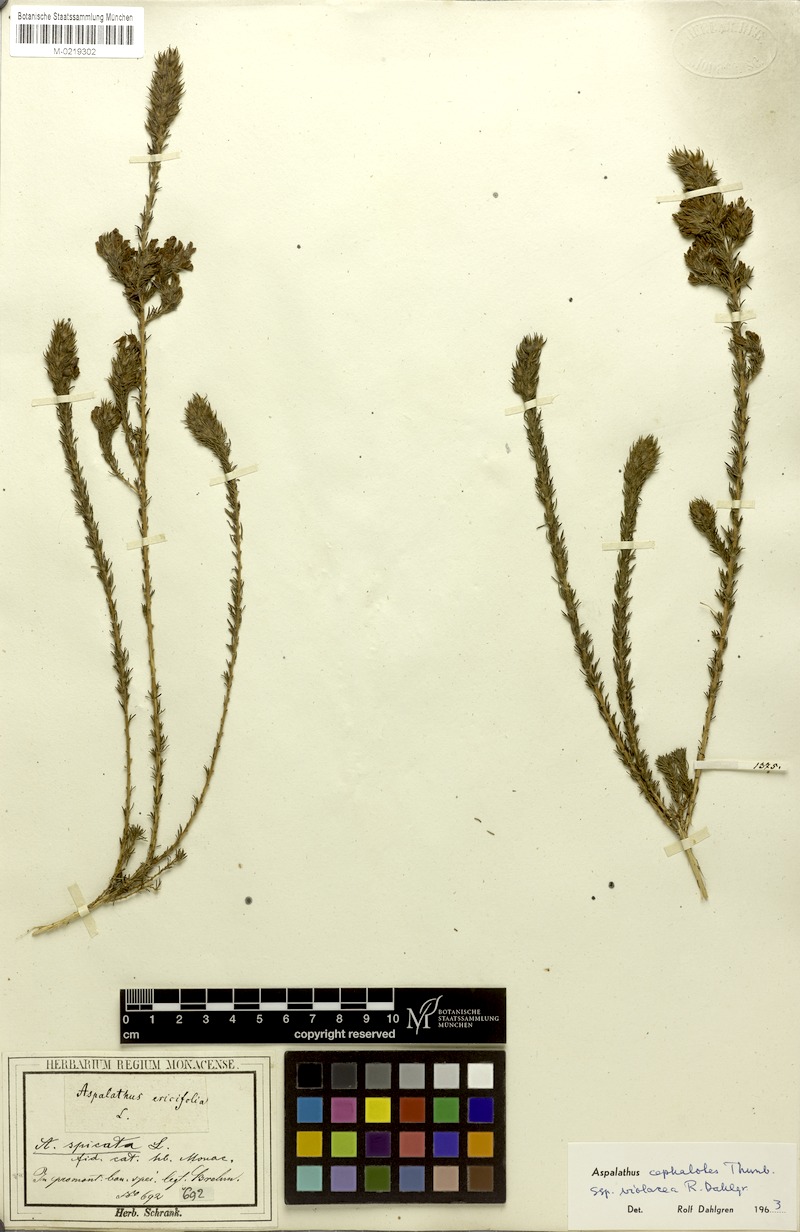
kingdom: Plantae
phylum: Tracheophyta
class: Magnoliopsida
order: Fabales
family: Fabaceae
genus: Aspalathus
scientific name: Aspalathus cephalotes
